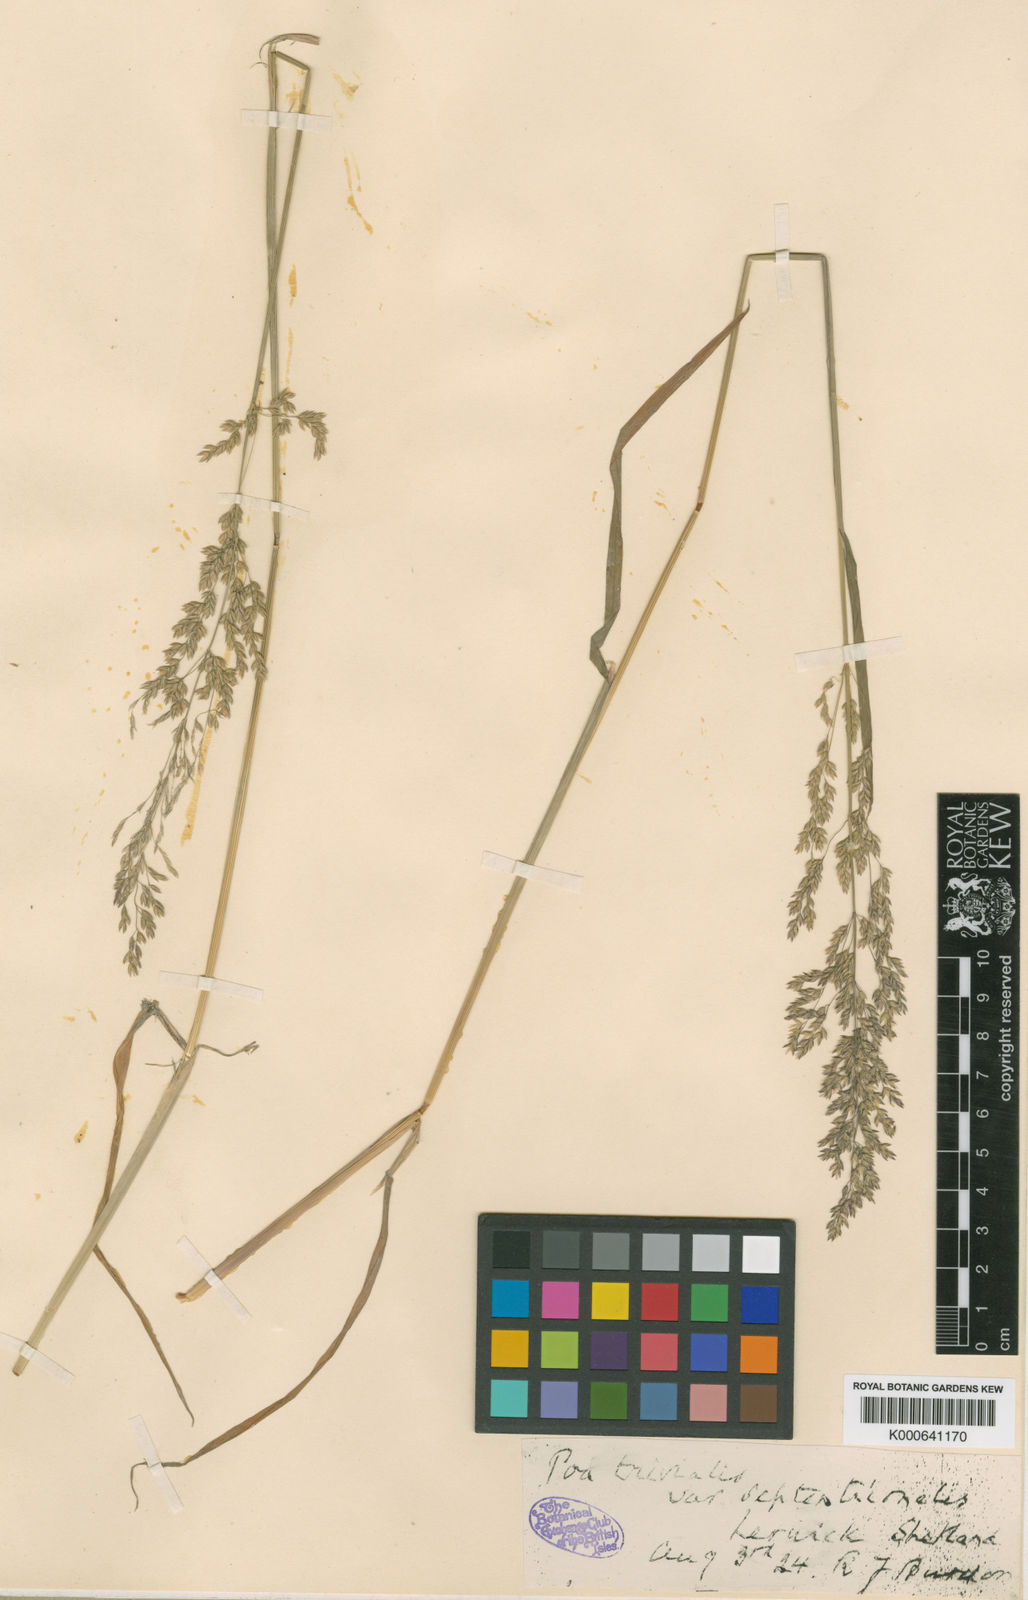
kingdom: Plantae
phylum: Tracheophyta
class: Liliopsida
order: Poales
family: Poaceae
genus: Poa
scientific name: Poa trivialis
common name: Rough bluegrass
